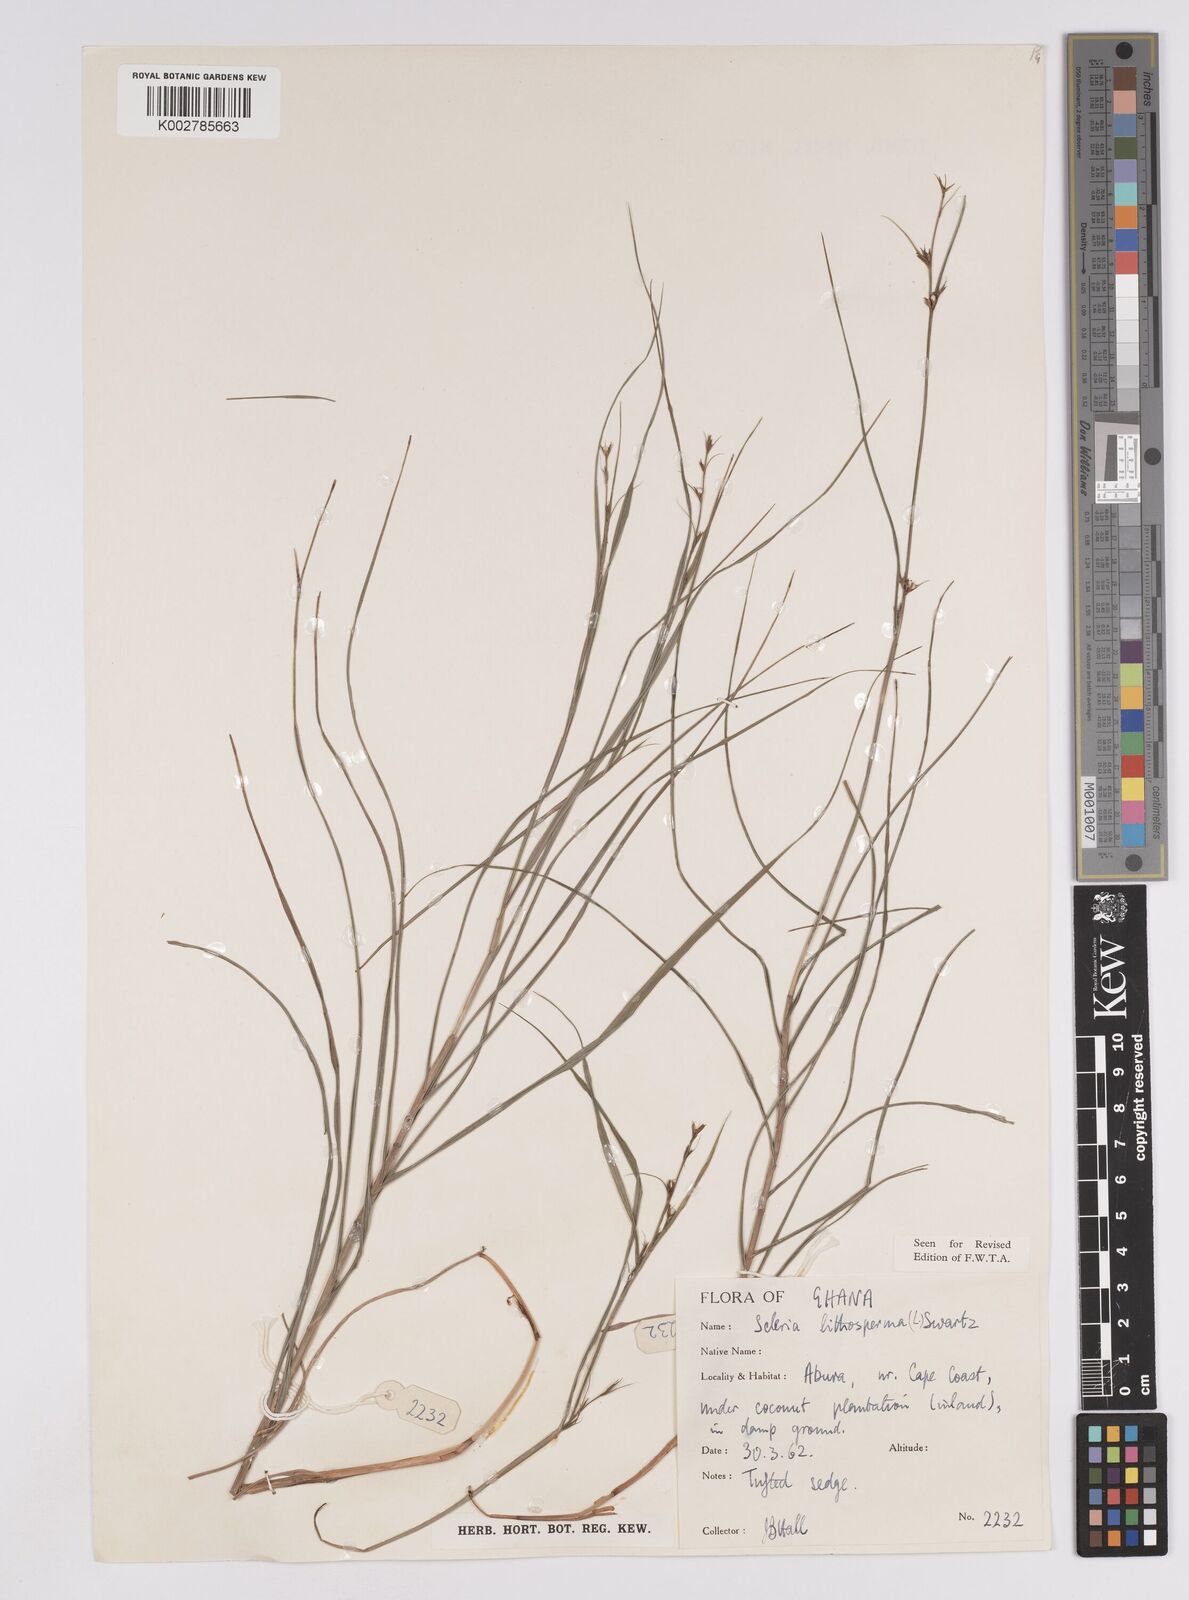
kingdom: Plantae
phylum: Tracheophyta
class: Liliopsida
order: Poales
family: Cyperaceae
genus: Scleria
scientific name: Scleria lithosperma
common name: Florida keys nut-rush
